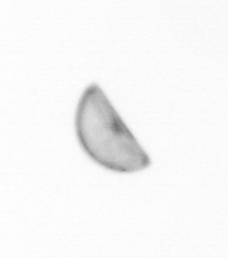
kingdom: Chromista
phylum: Ochrophyta
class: Bacillariophyceae
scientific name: Bacillariophyceae
